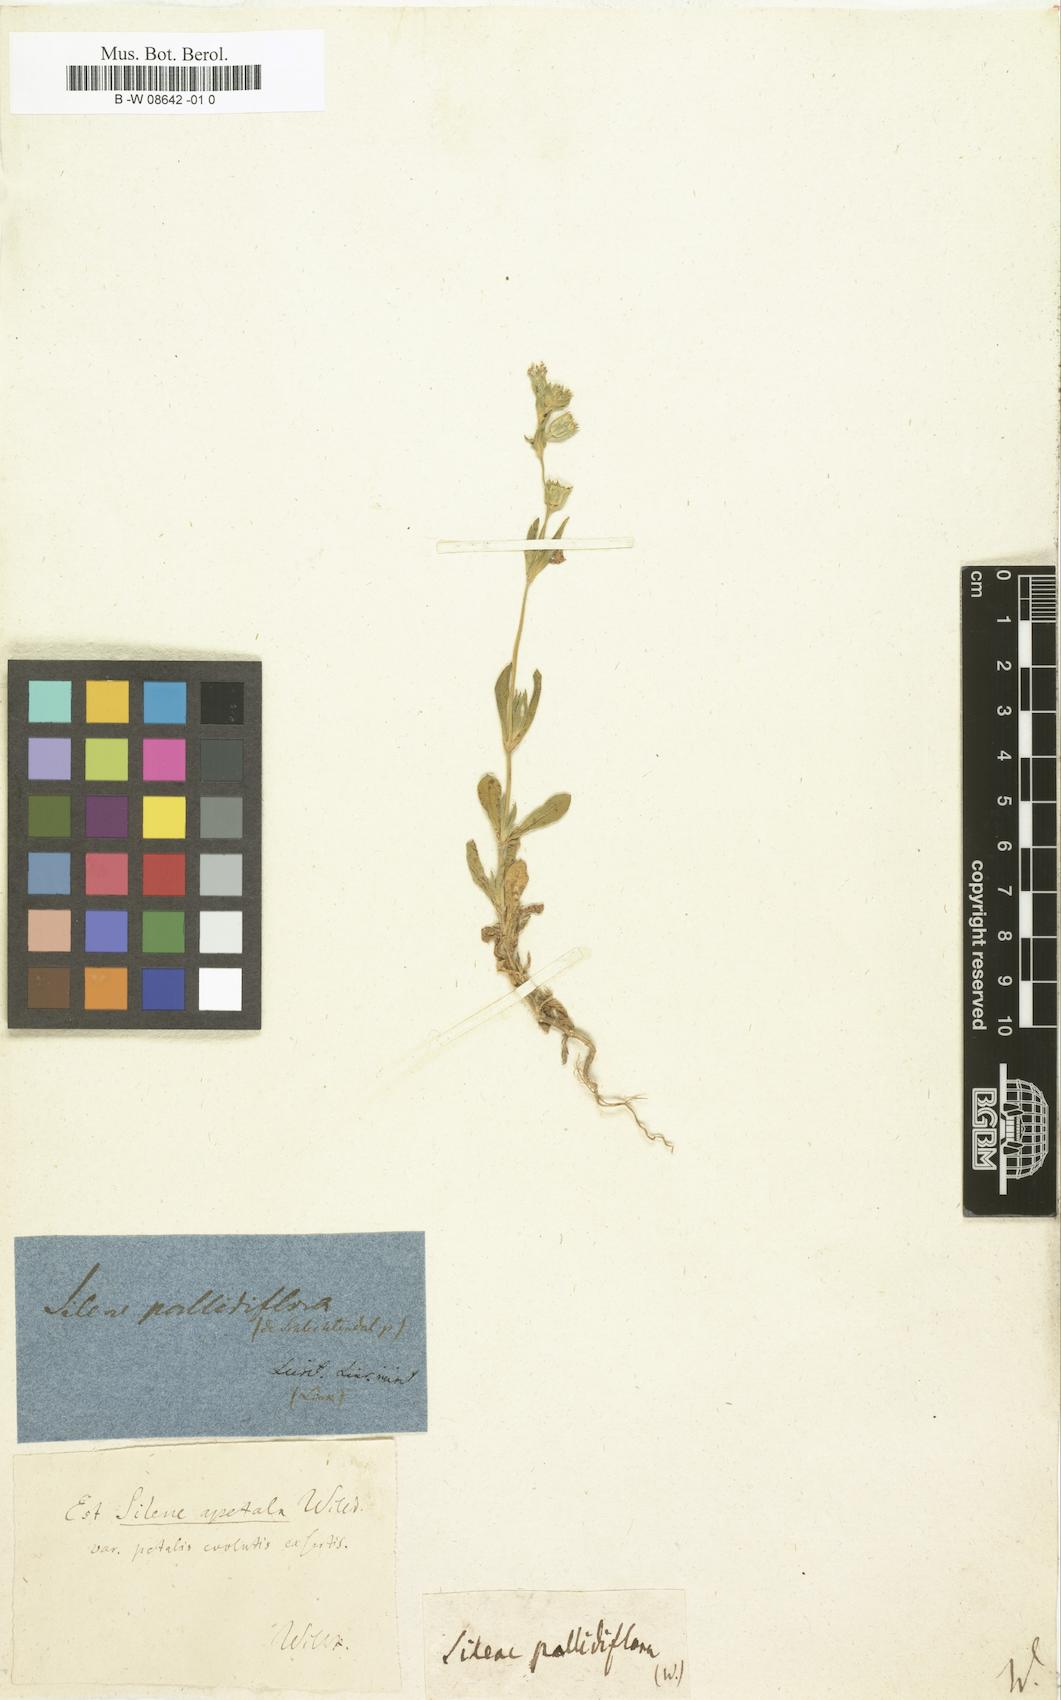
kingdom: Plantae
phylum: Tracheophyta
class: Magnoliopsida
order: Caryophyllales
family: Caryophyllaceae
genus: Silene
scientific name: Silene
